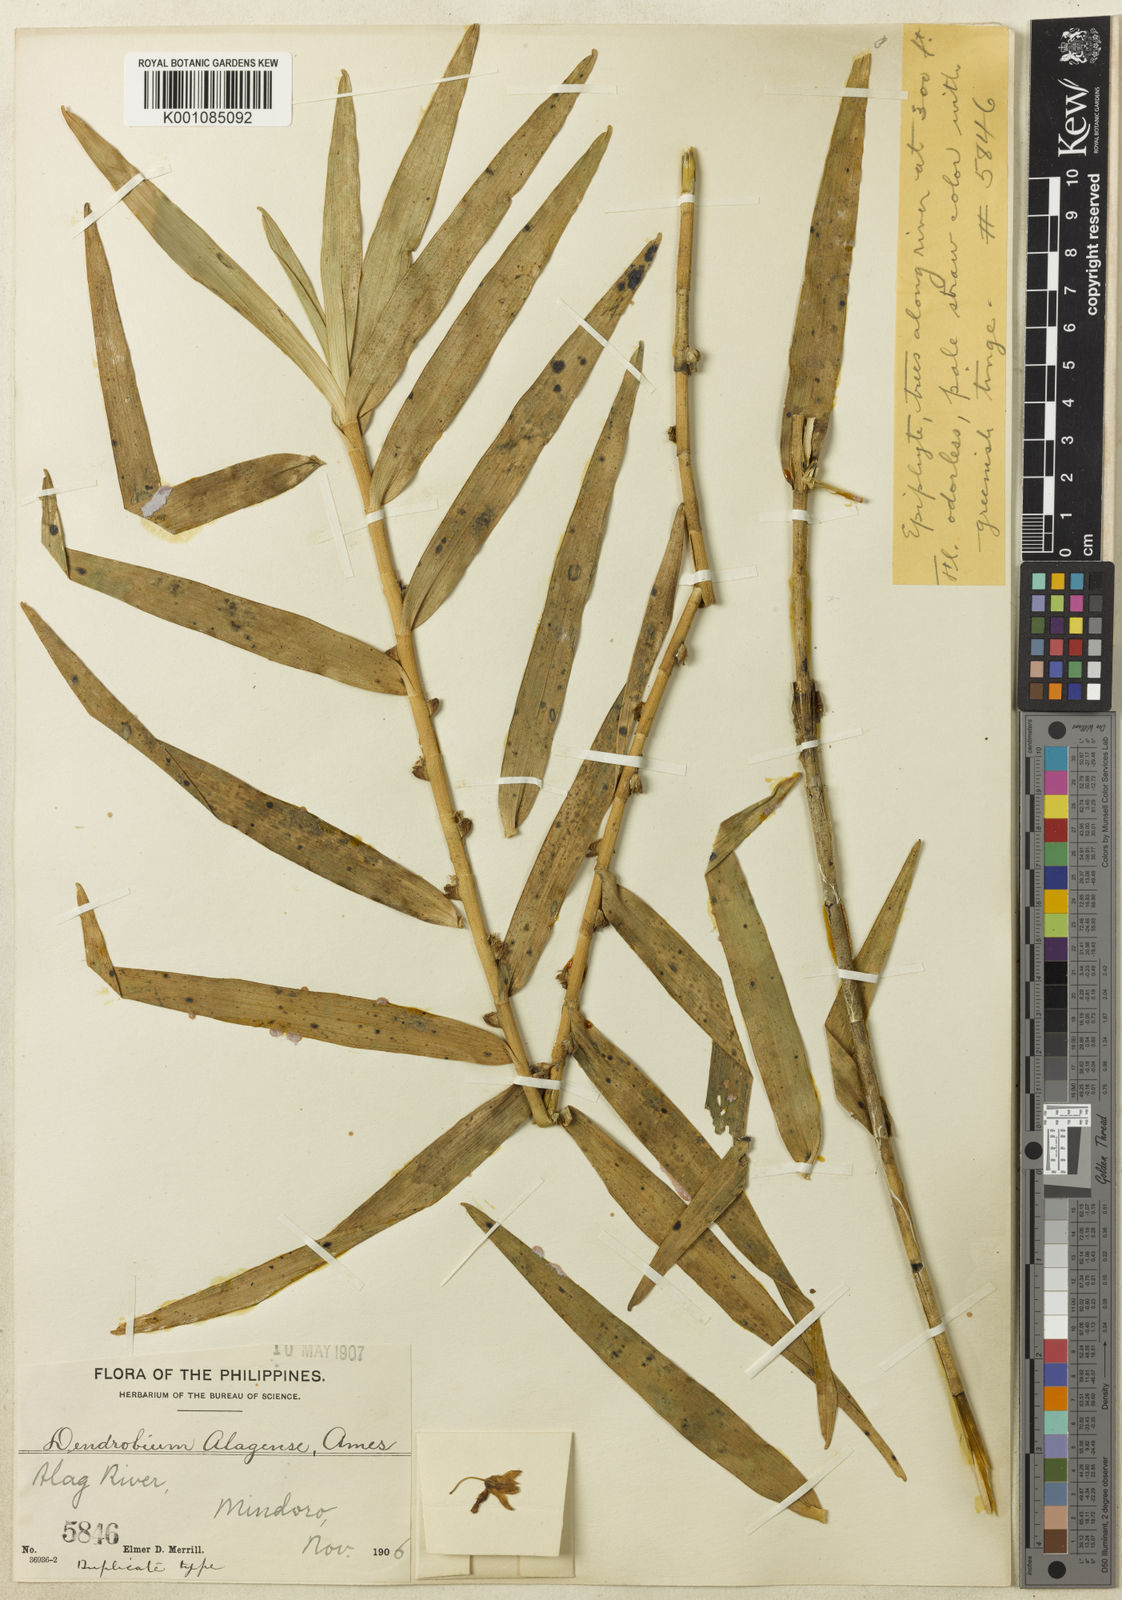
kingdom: Plantae
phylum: Tracheophyta
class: Liliopsida
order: Asparagales
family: Orchidaceae
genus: Dendrobium
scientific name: Dendrobium
